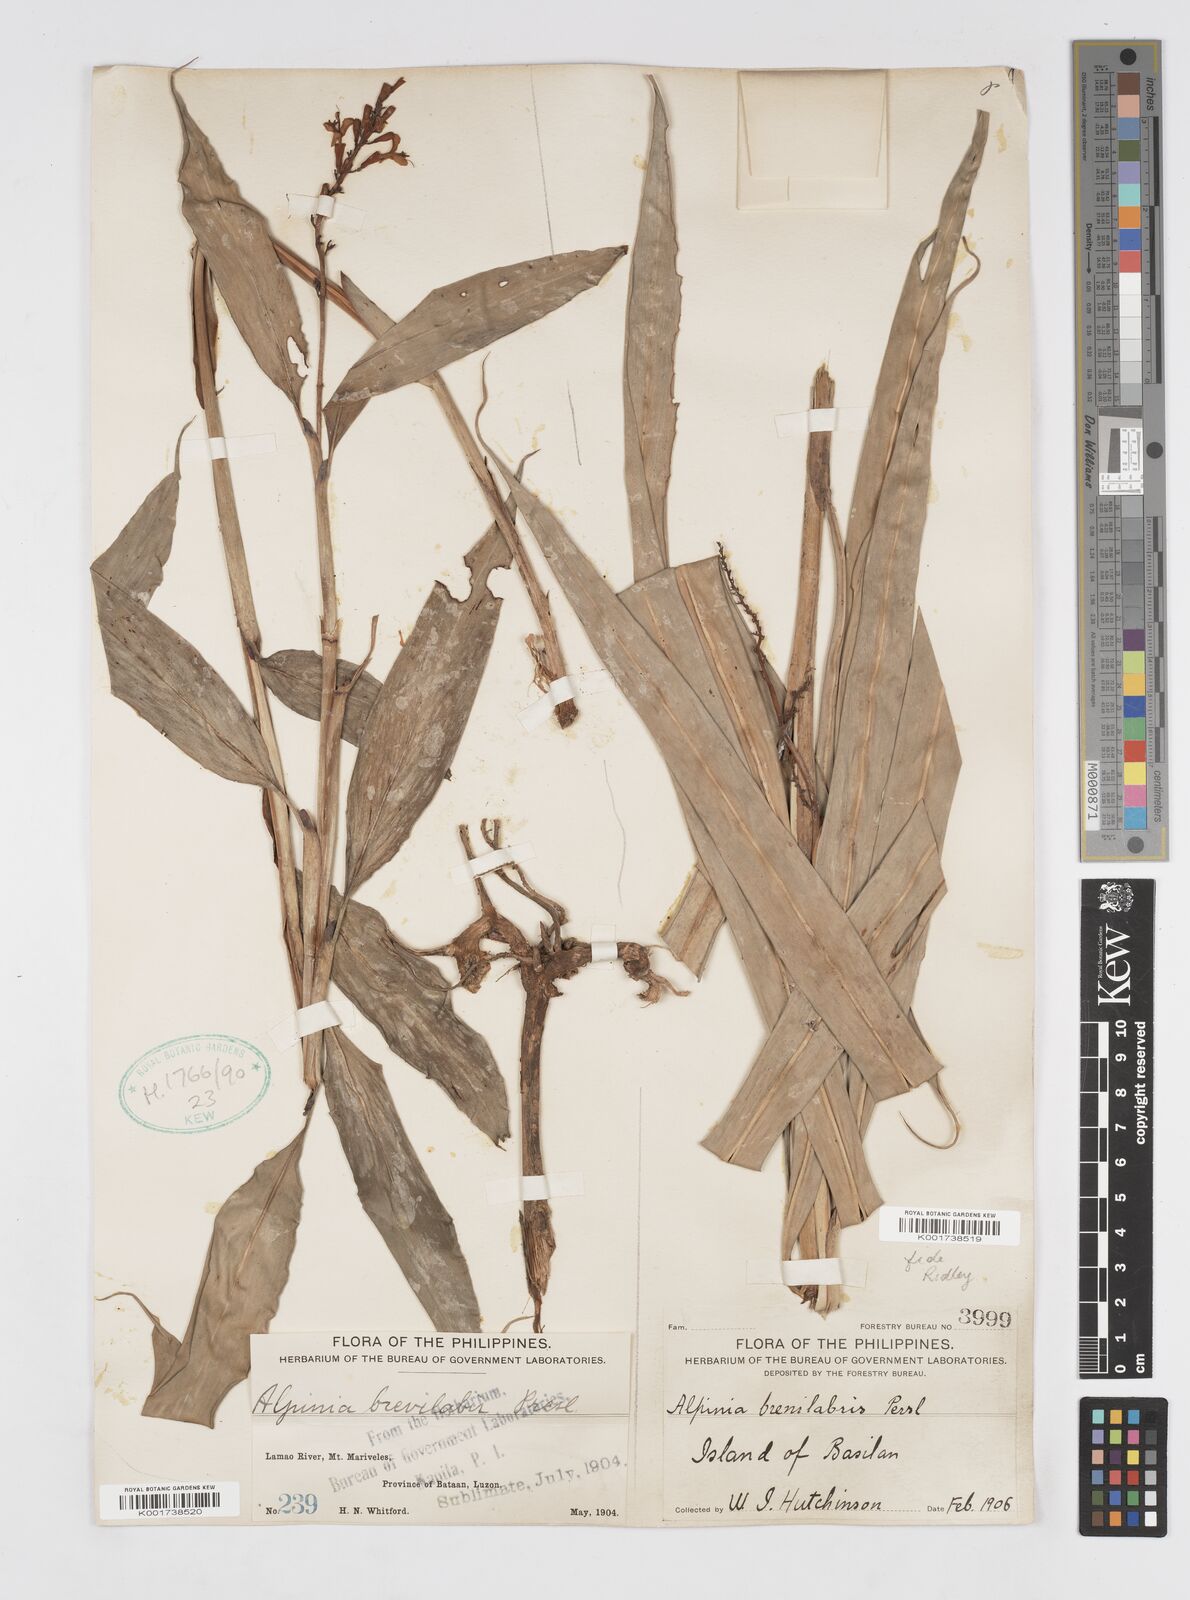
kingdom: Plantae
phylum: Tracheophyta
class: Liliopsida
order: Zingiberales
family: Zingiberaceae
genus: Alpinia
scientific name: Alpinia brevilabris
